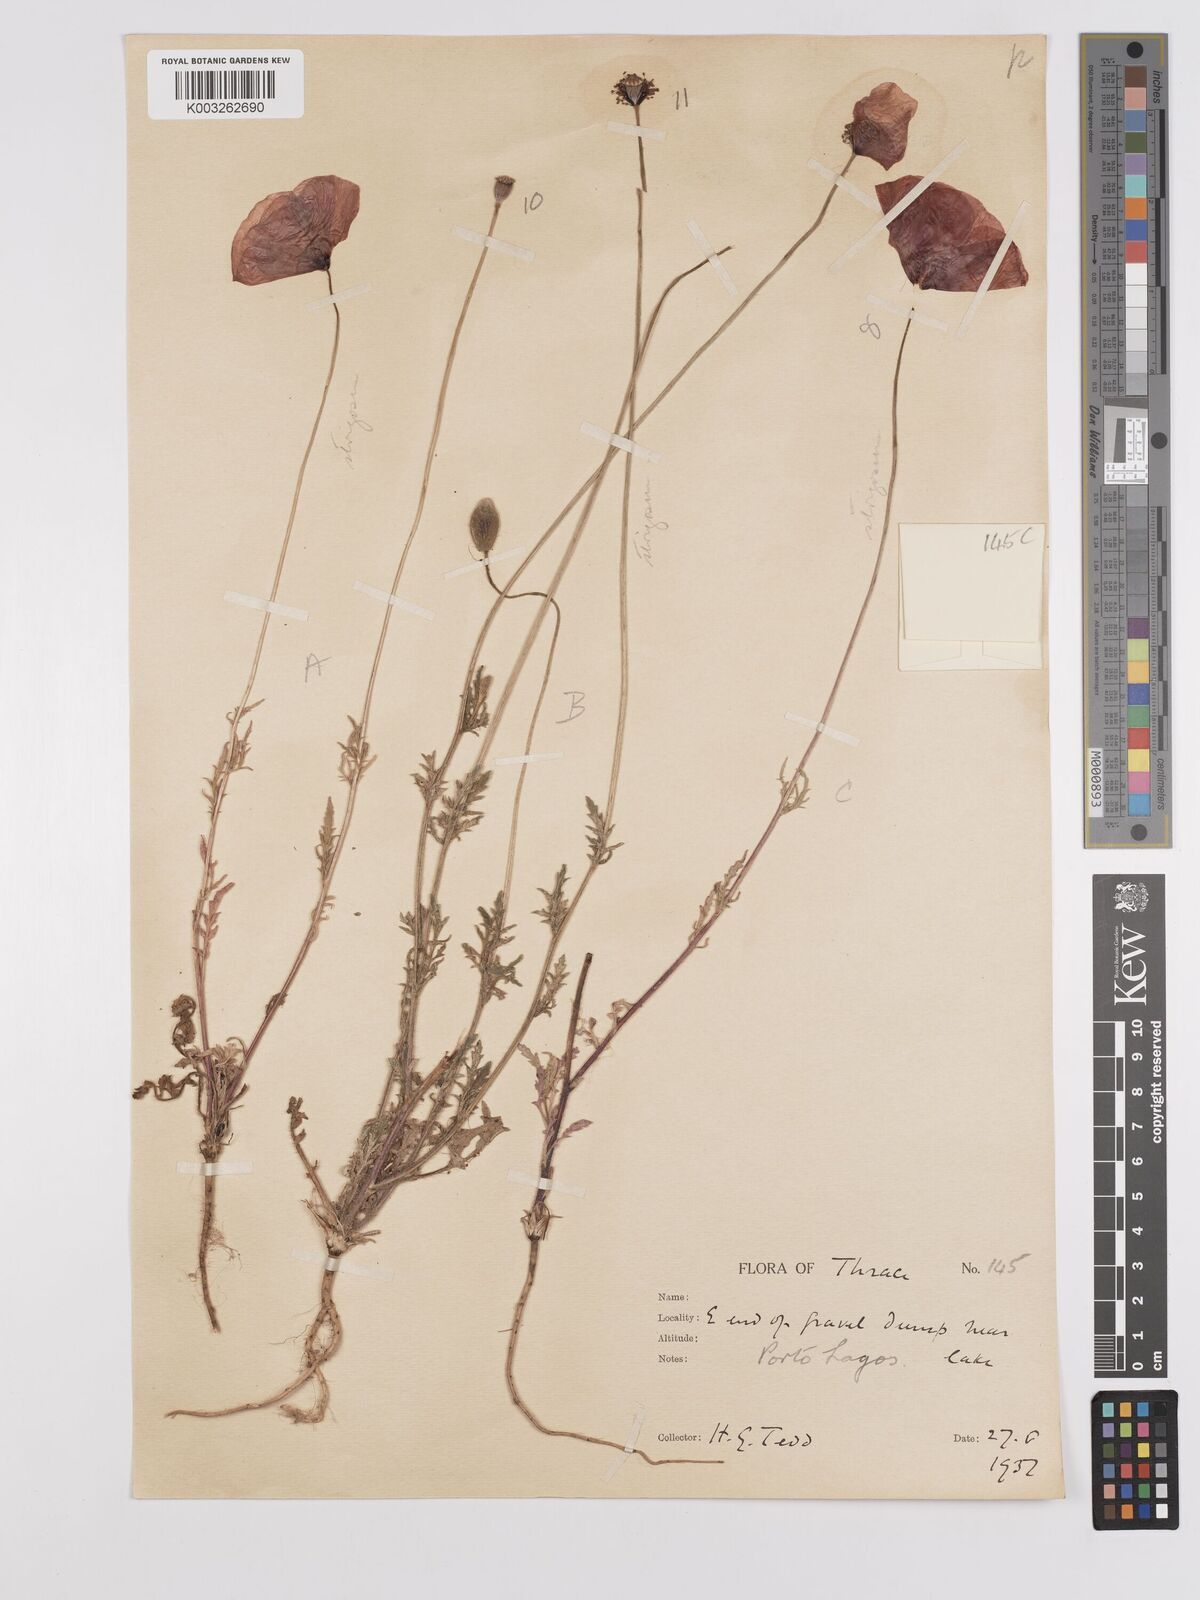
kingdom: Plantae
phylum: Tracheophyta
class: Magnoliopsida
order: Ranunculales
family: Papaveraceae
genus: Papaver
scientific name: Papaver
